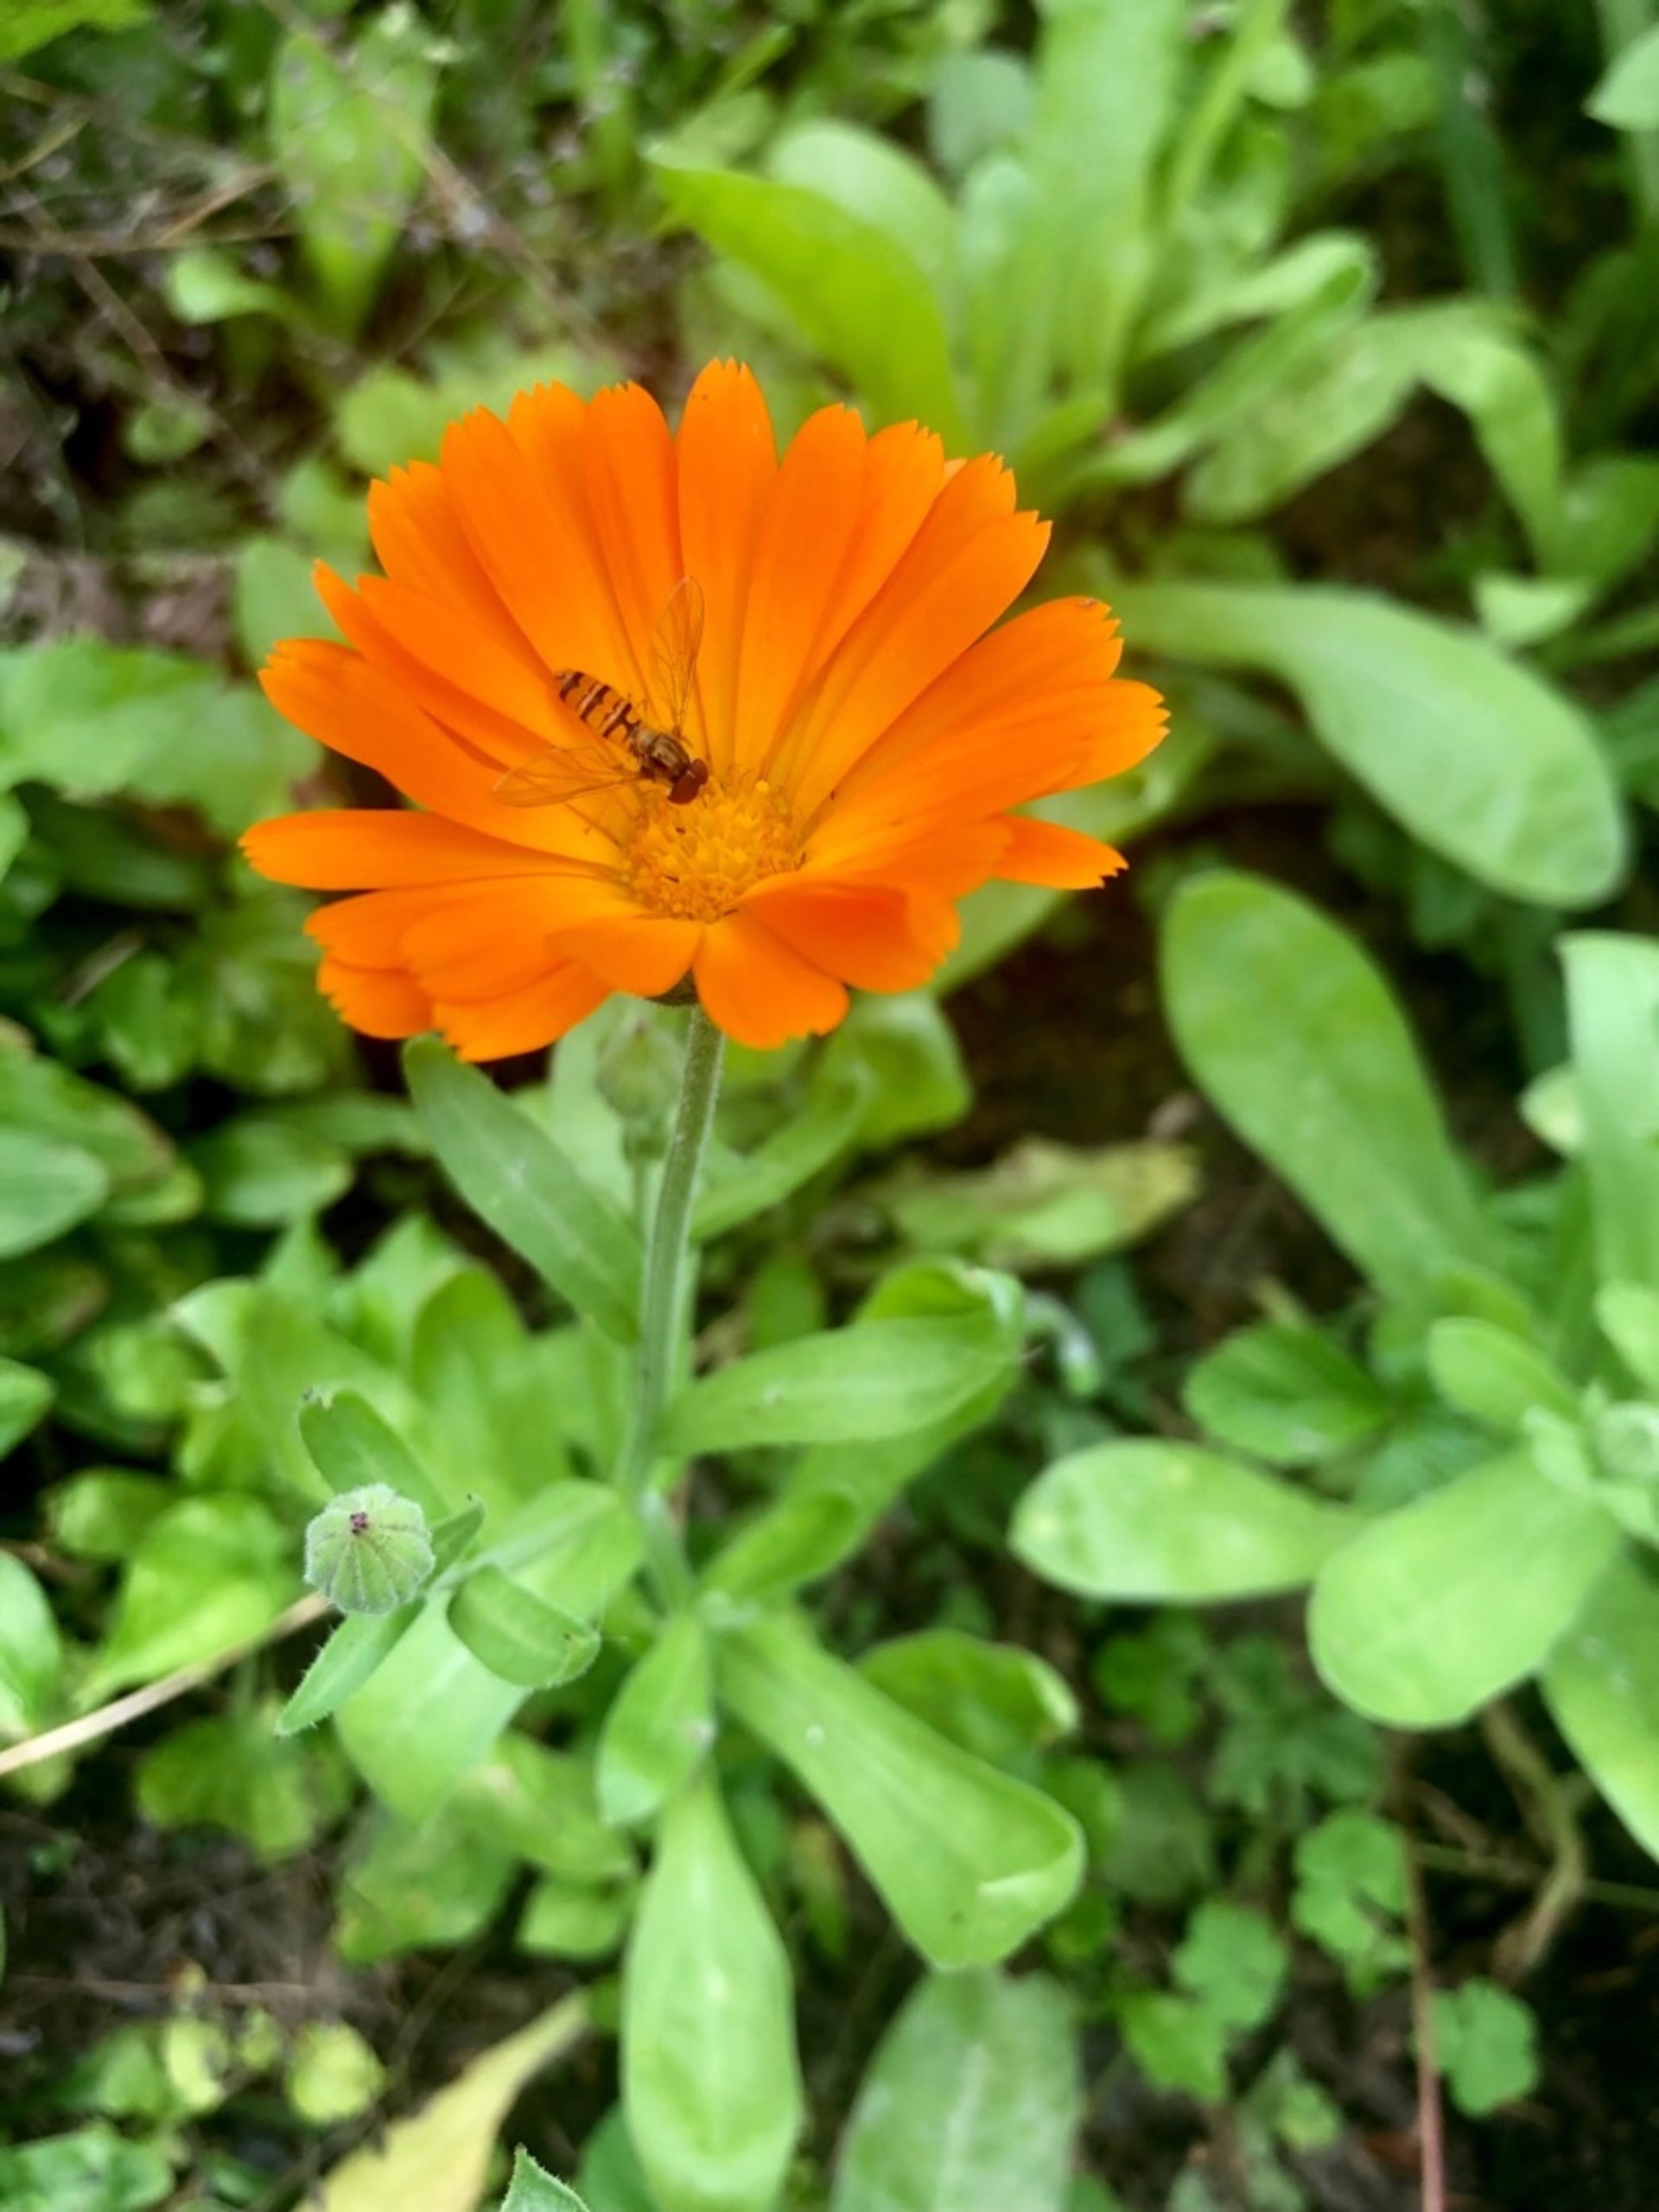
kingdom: Animalia
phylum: Arthropoda
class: Insecta
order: Diptera
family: Syrphidae
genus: Episyrphus
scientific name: Episyrphus balteatus
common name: Dobbeltbåndet svirreflue
